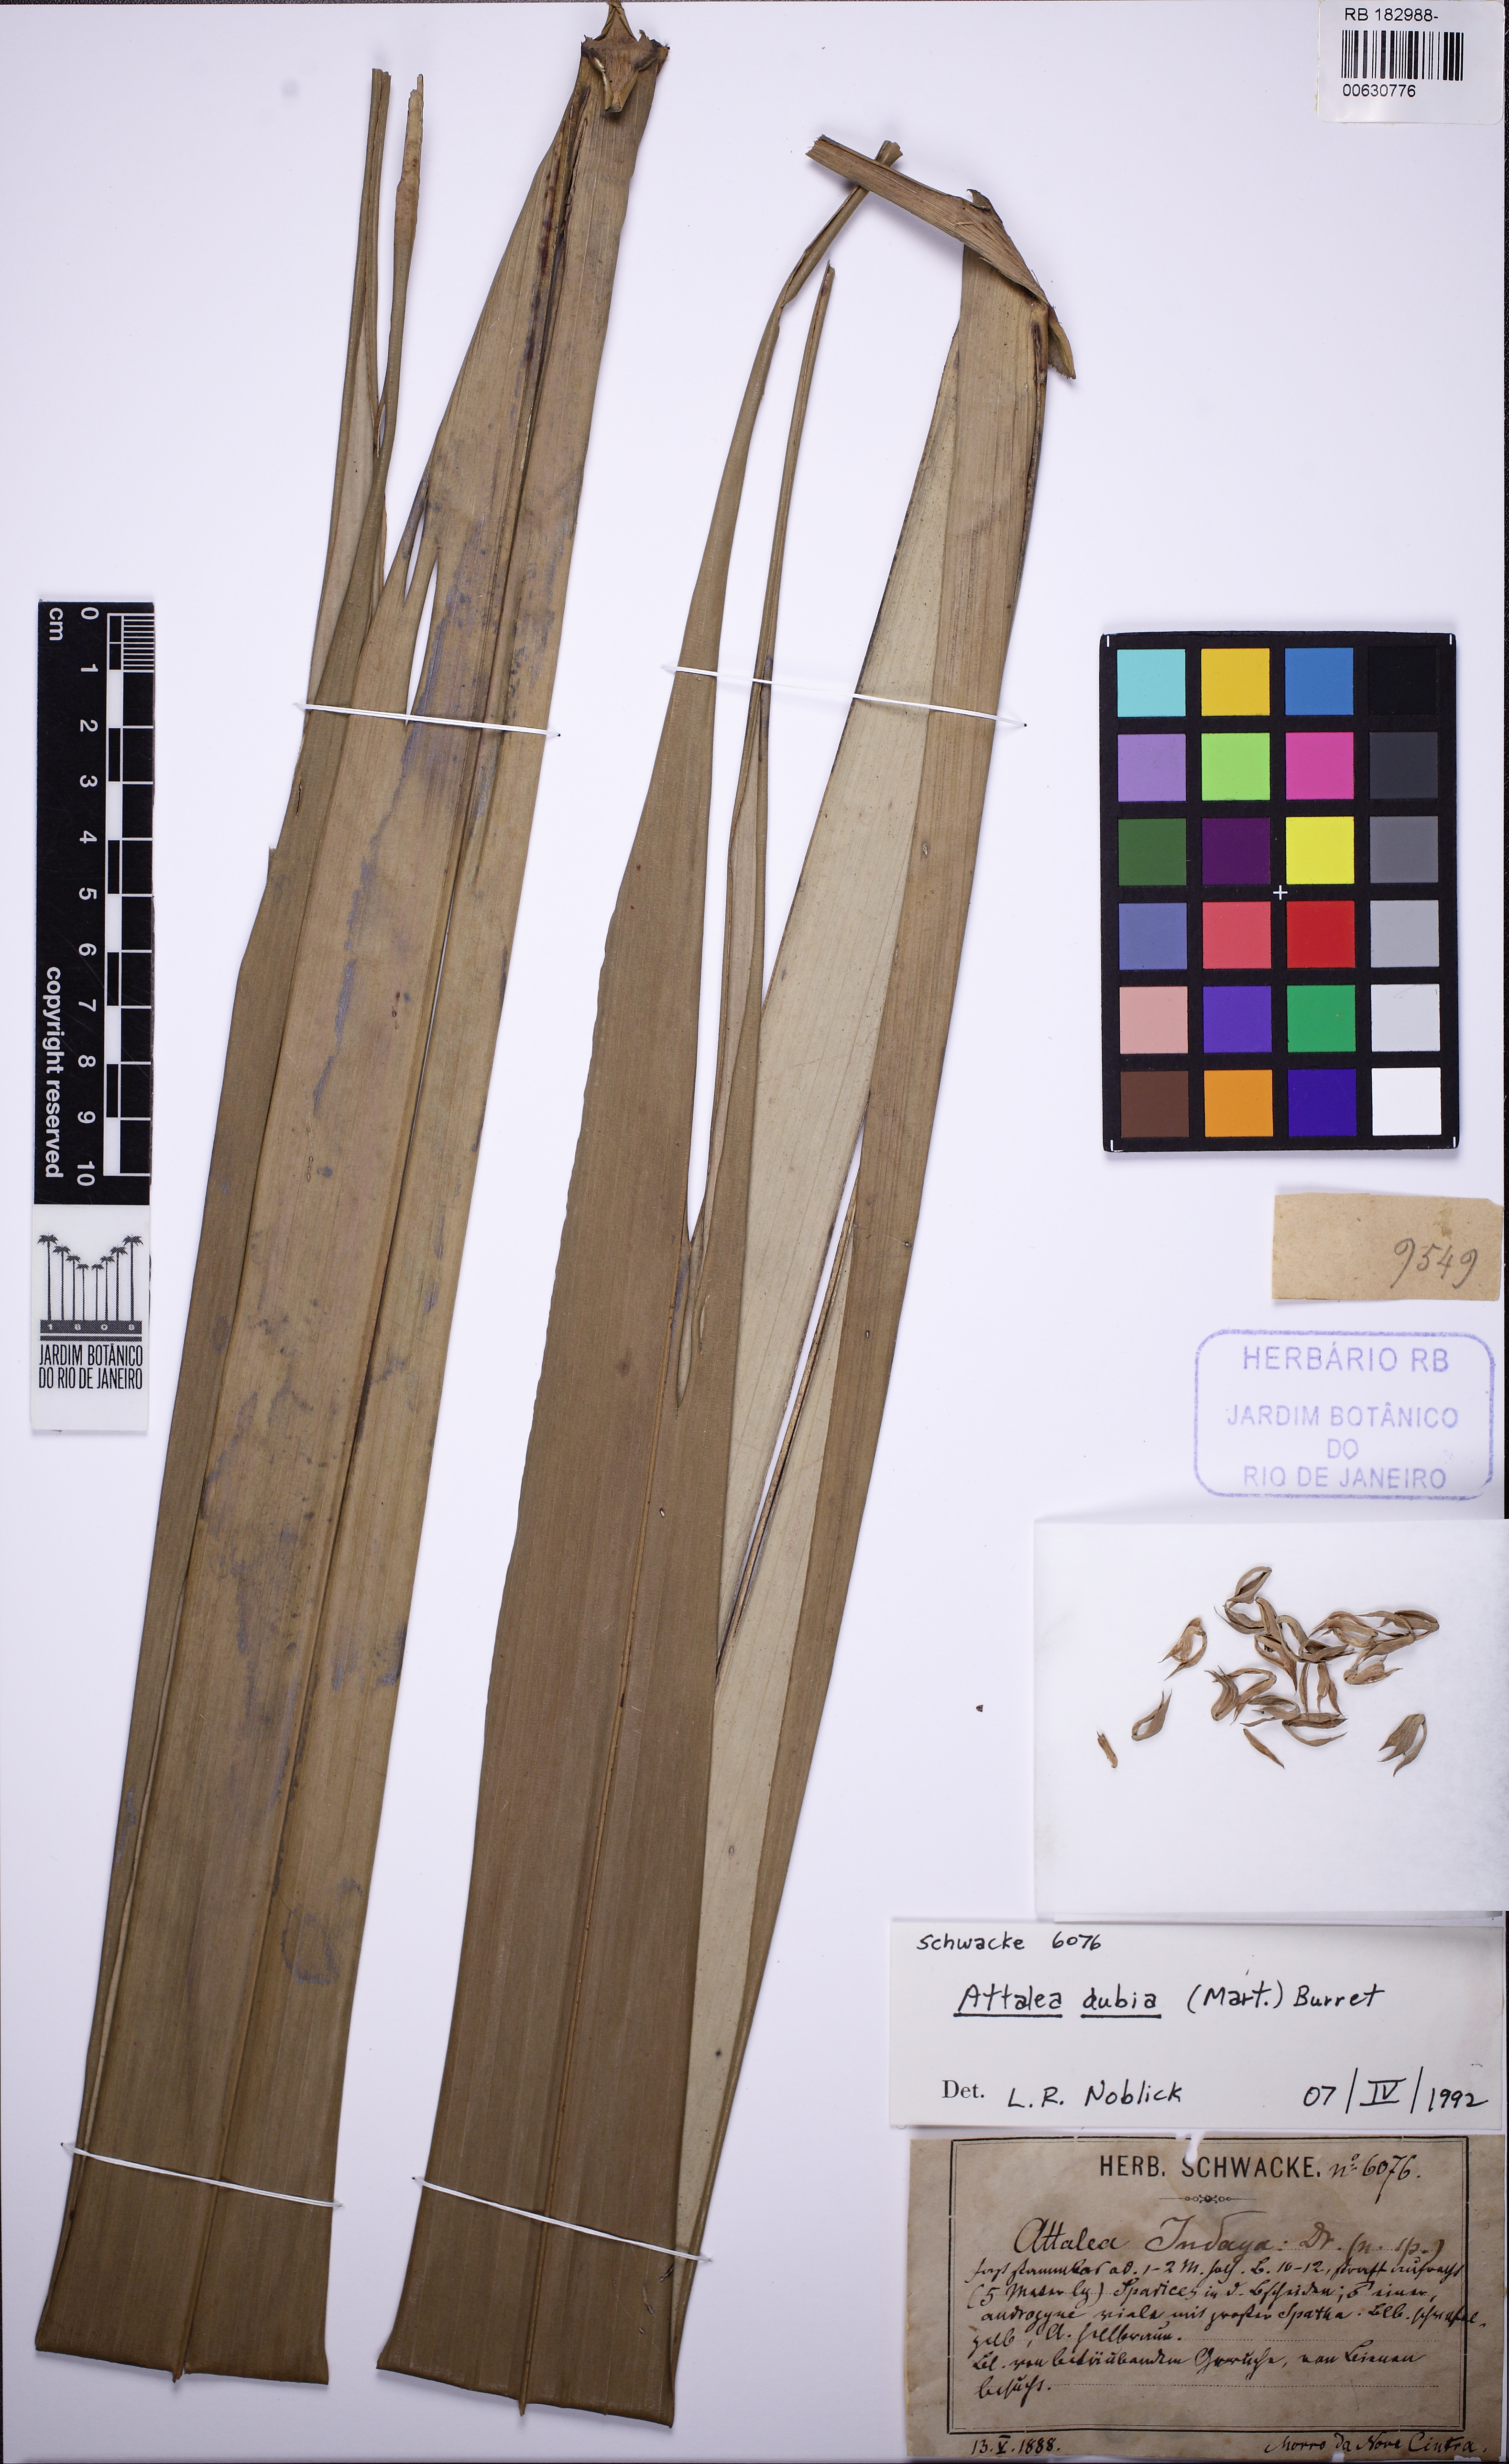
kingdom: Plantae
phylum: Tracheophyta
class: Liliopsida
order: Arecales
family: Arecaceae
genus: Attalea
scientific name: Attalea dubia
